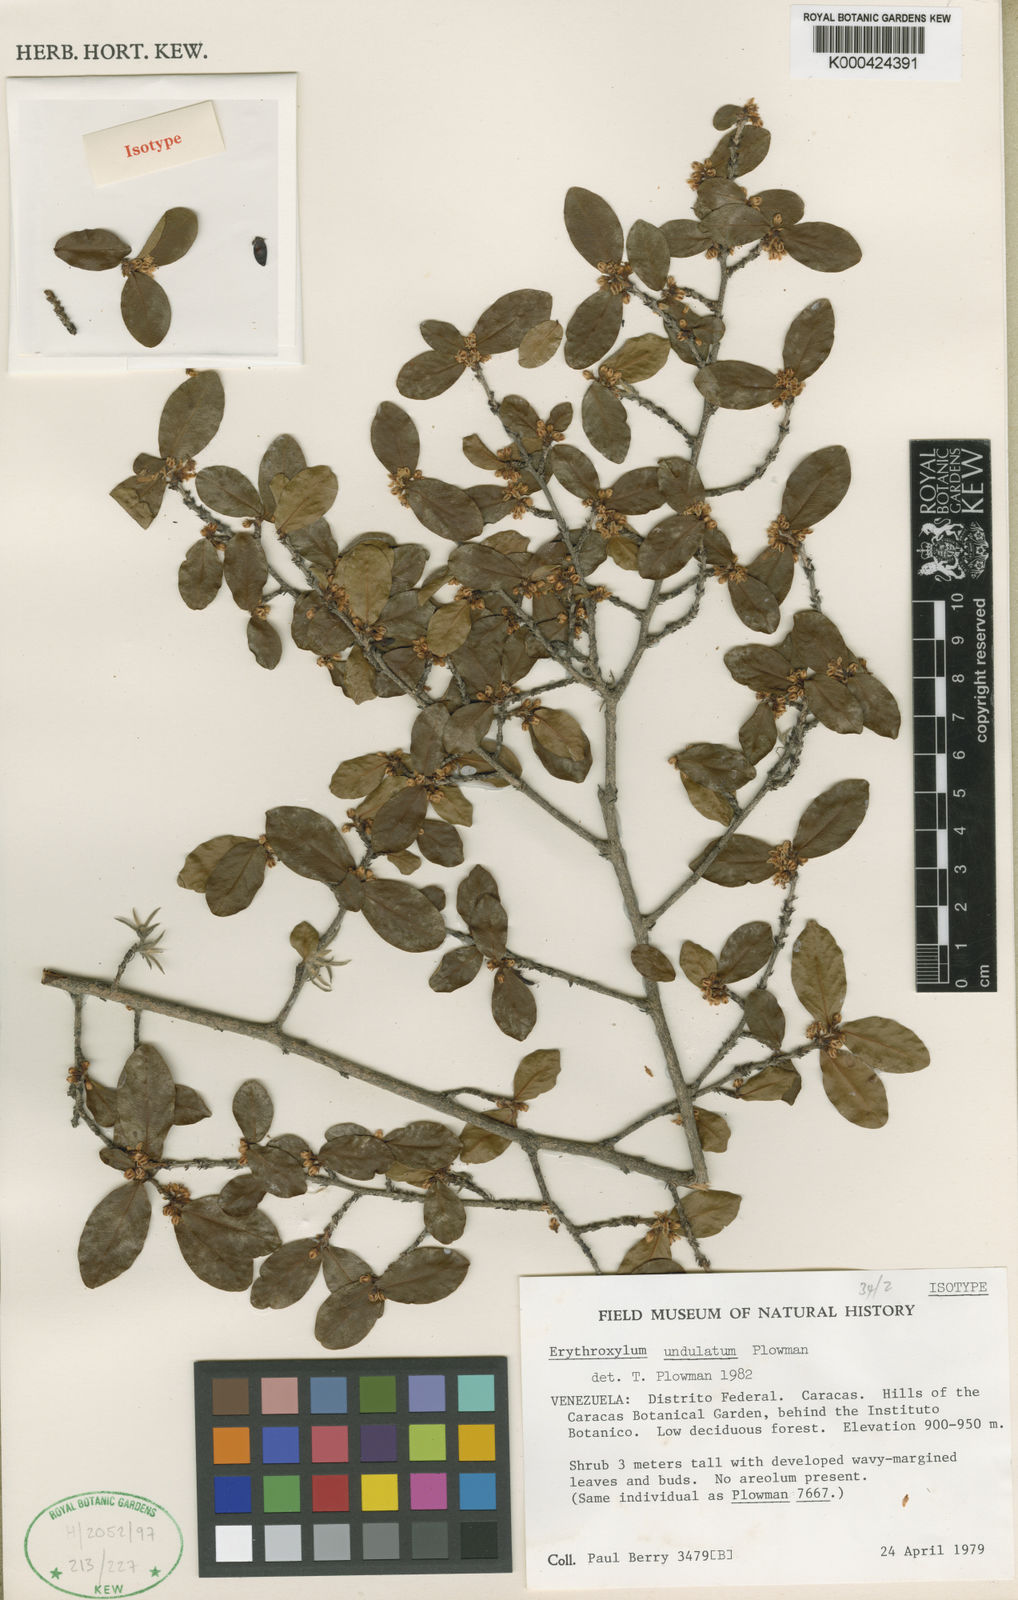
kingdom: Plantae
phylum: Tracheophyta
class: Magnoliopsida
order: Malpighiales
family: Erythroxylaceae
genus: Erythroxylum
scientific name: Erythroxylum undulatum
